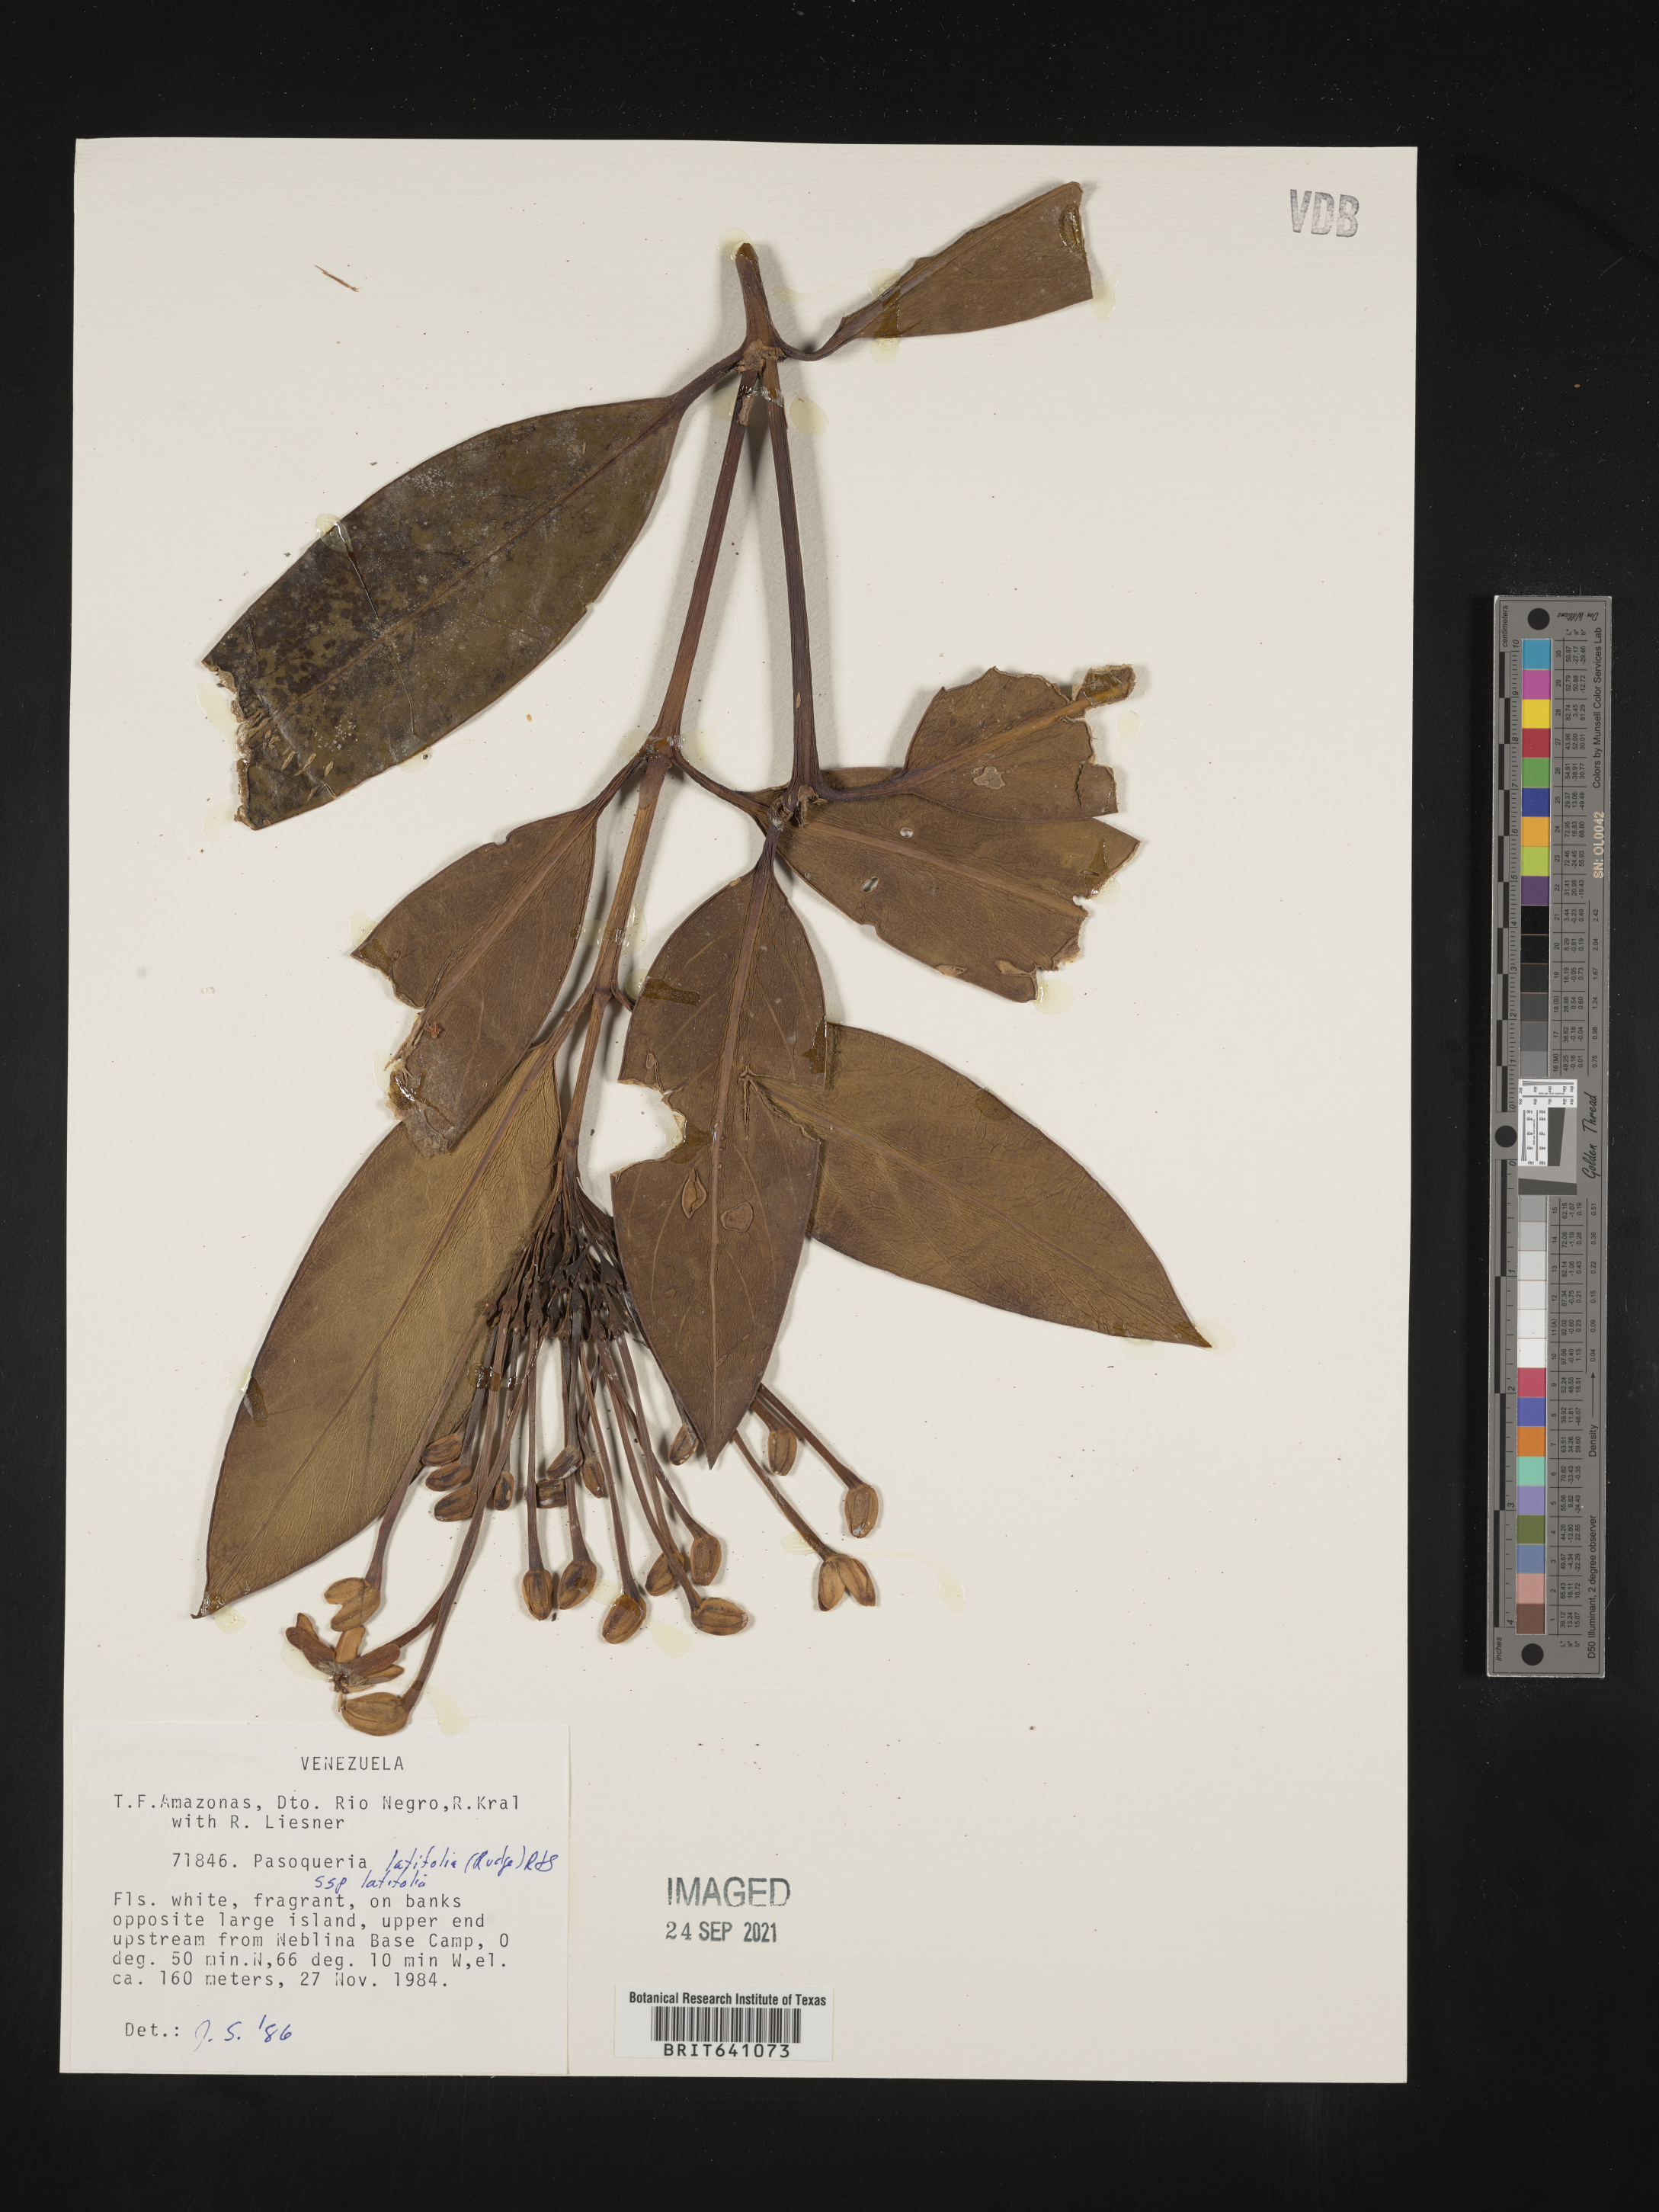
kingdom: Plantae
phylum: Tracheophyta
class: Magnoliopsida
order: Gentianales
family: Rubiaceae
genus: Posoqueria
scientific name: Posoqueria
